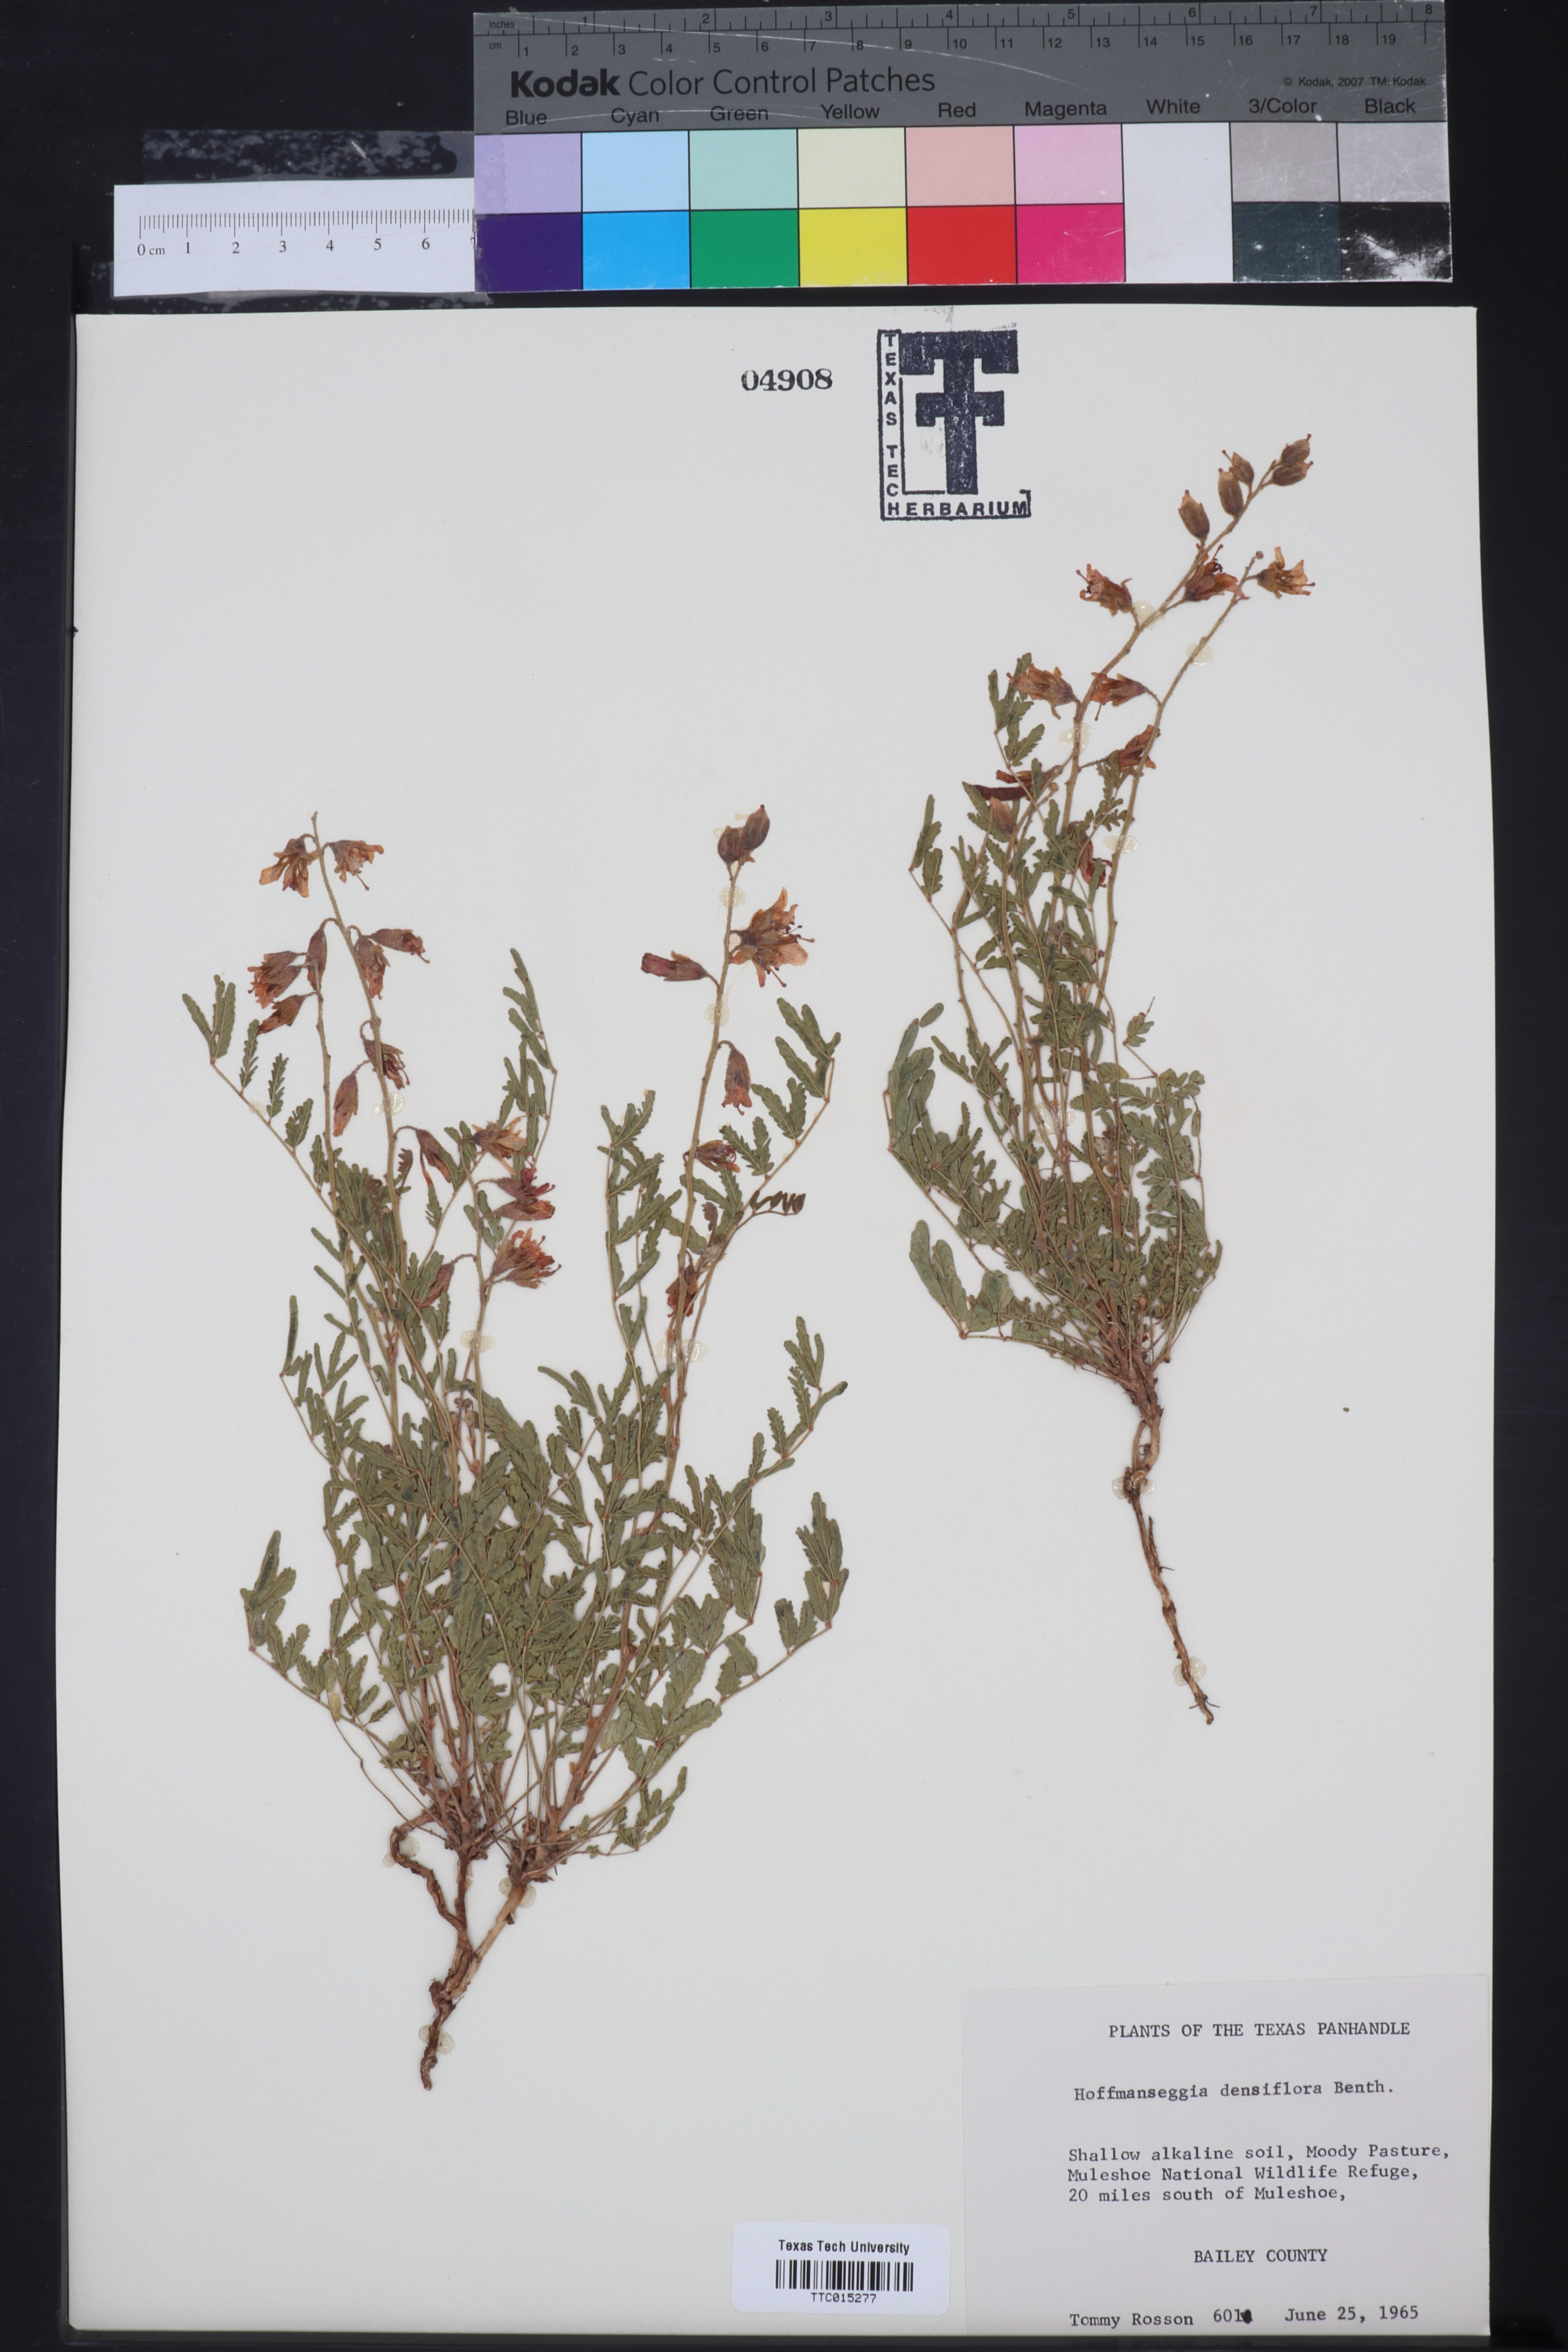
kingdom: Plantae
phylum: Tracheophyta
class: Magnoliopsida
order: Fabales
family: Fabaceae
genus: Hoffmannseggia
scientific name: Hoffmannseggia glauca
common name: Pignut
